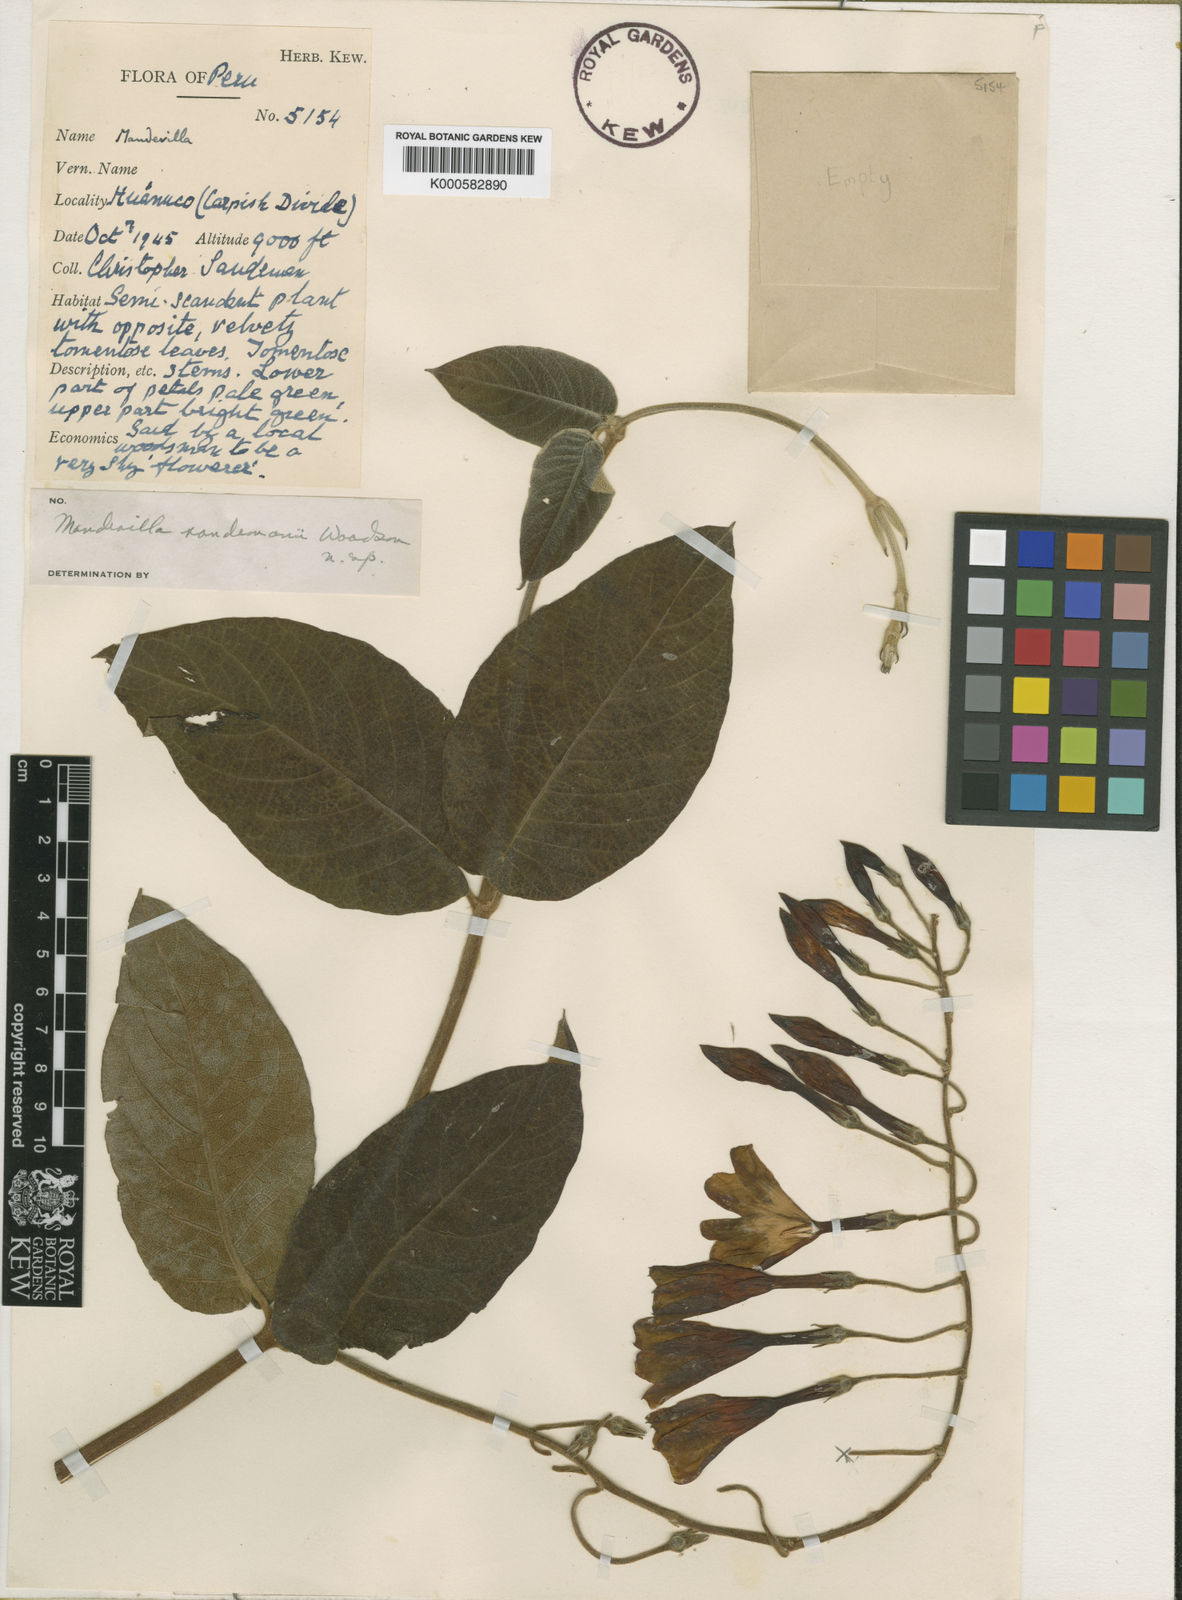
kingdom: Plantae
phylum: Tracheophyta
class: Magnoliopsida
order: Gentianales
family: Apocynaceae
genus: Mandevilla
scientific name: Mandevilla sandemanii
